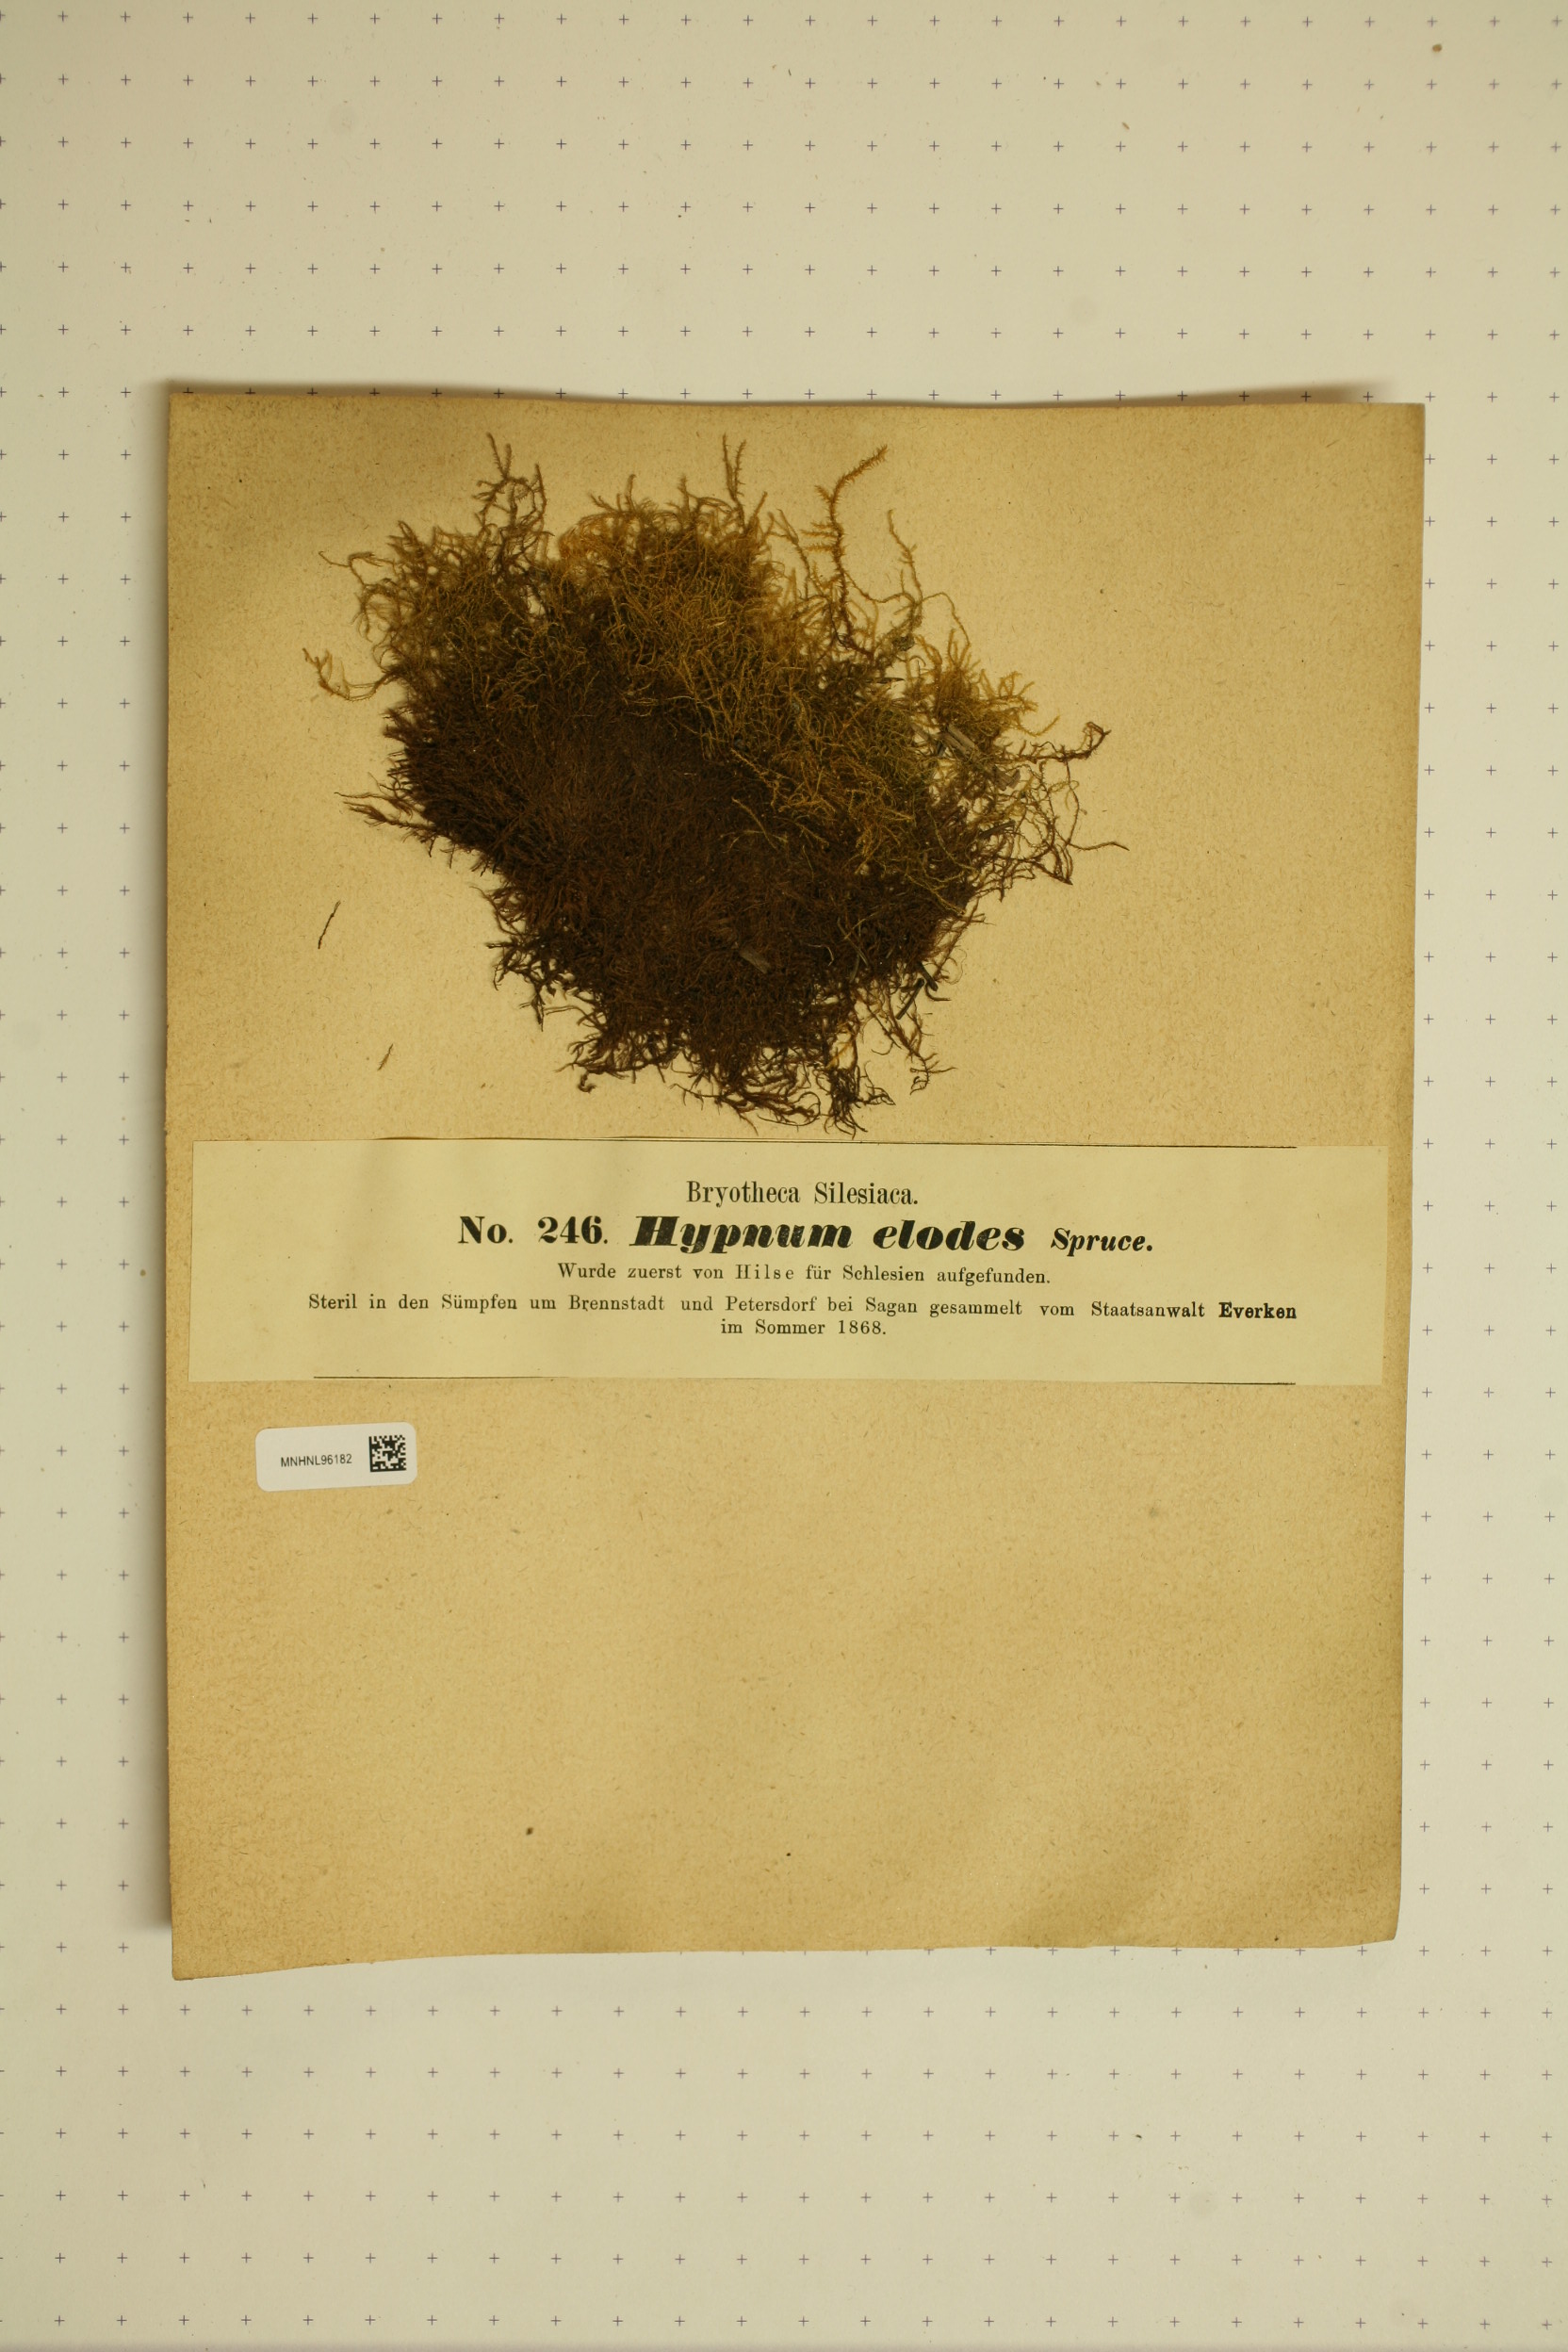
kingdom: Plantae
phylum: Bryophyta
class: Bryopsida
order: Hypnales
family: Amblystegiaceae
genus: Kandaea
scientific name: Kandaea elodes
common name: Fine-leaved marsh feather-moss
